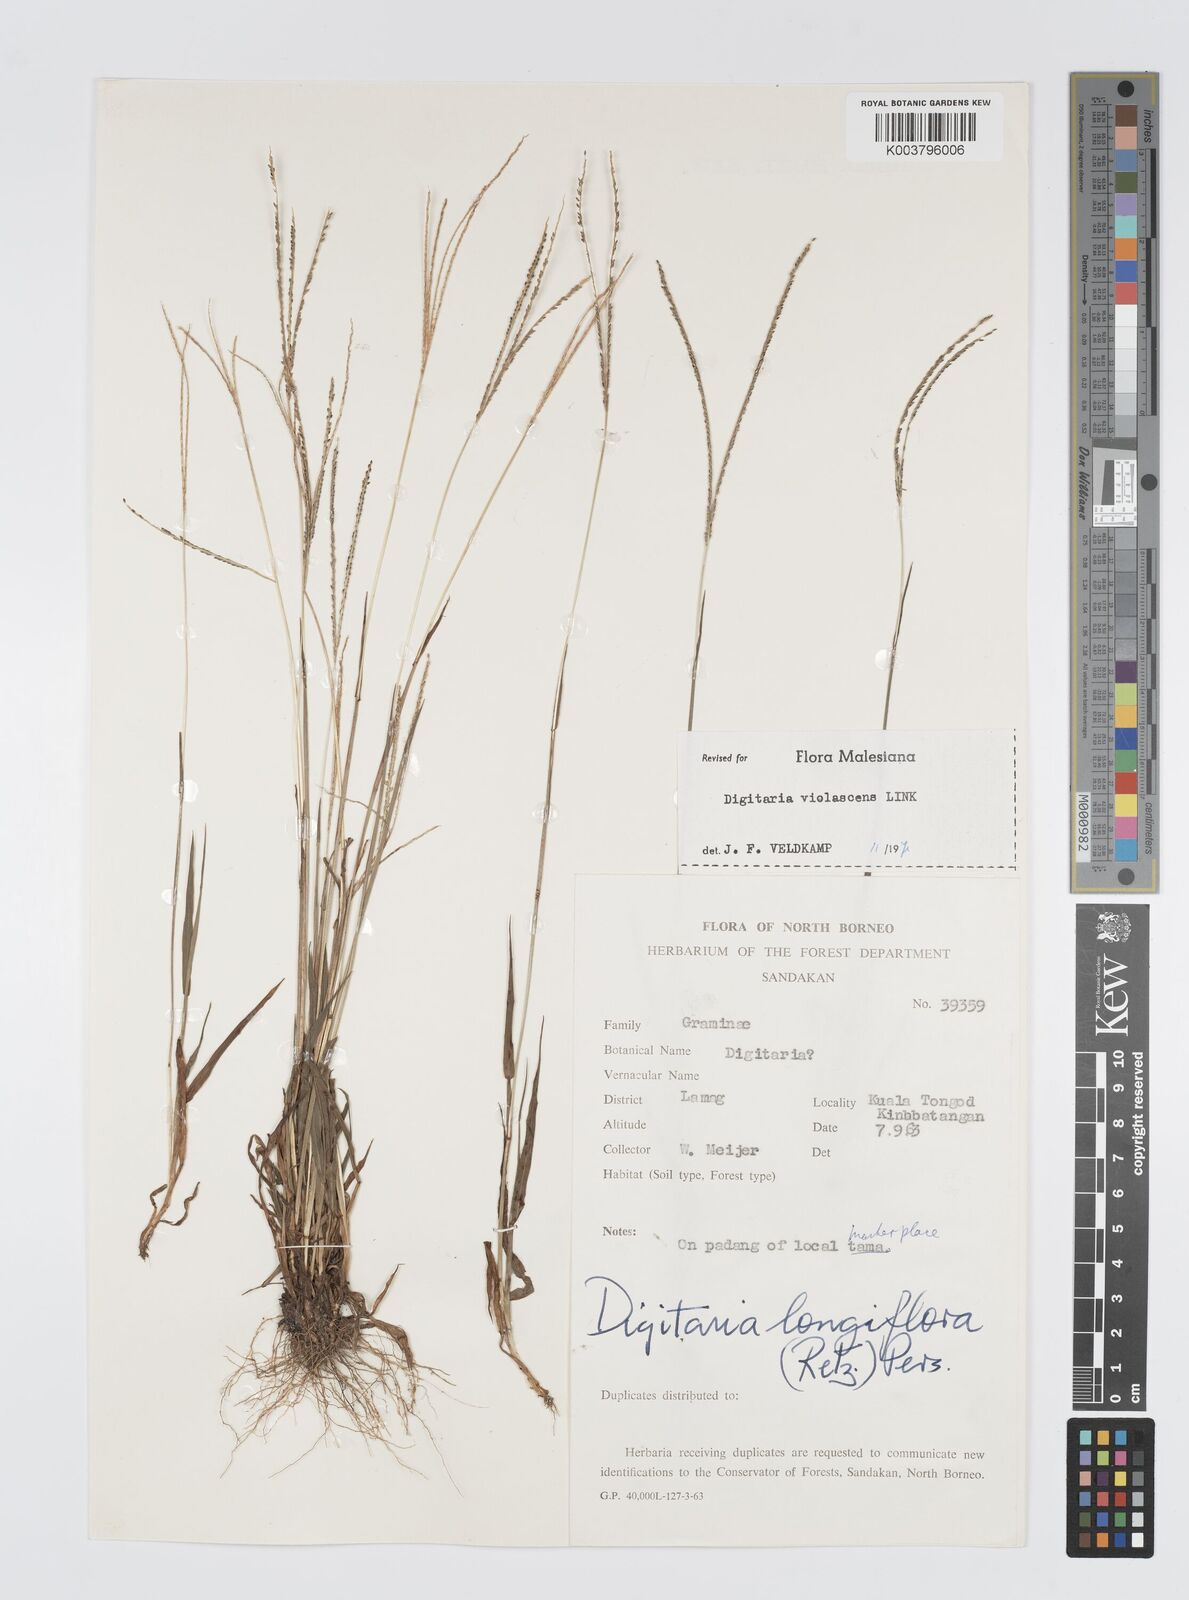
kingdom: Plantae
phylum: Tracheophyta
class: Liliopsida
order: Poales
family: Poaceae
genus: Digitaria
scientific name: Digitaria violascens
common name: Violet crabgrass
